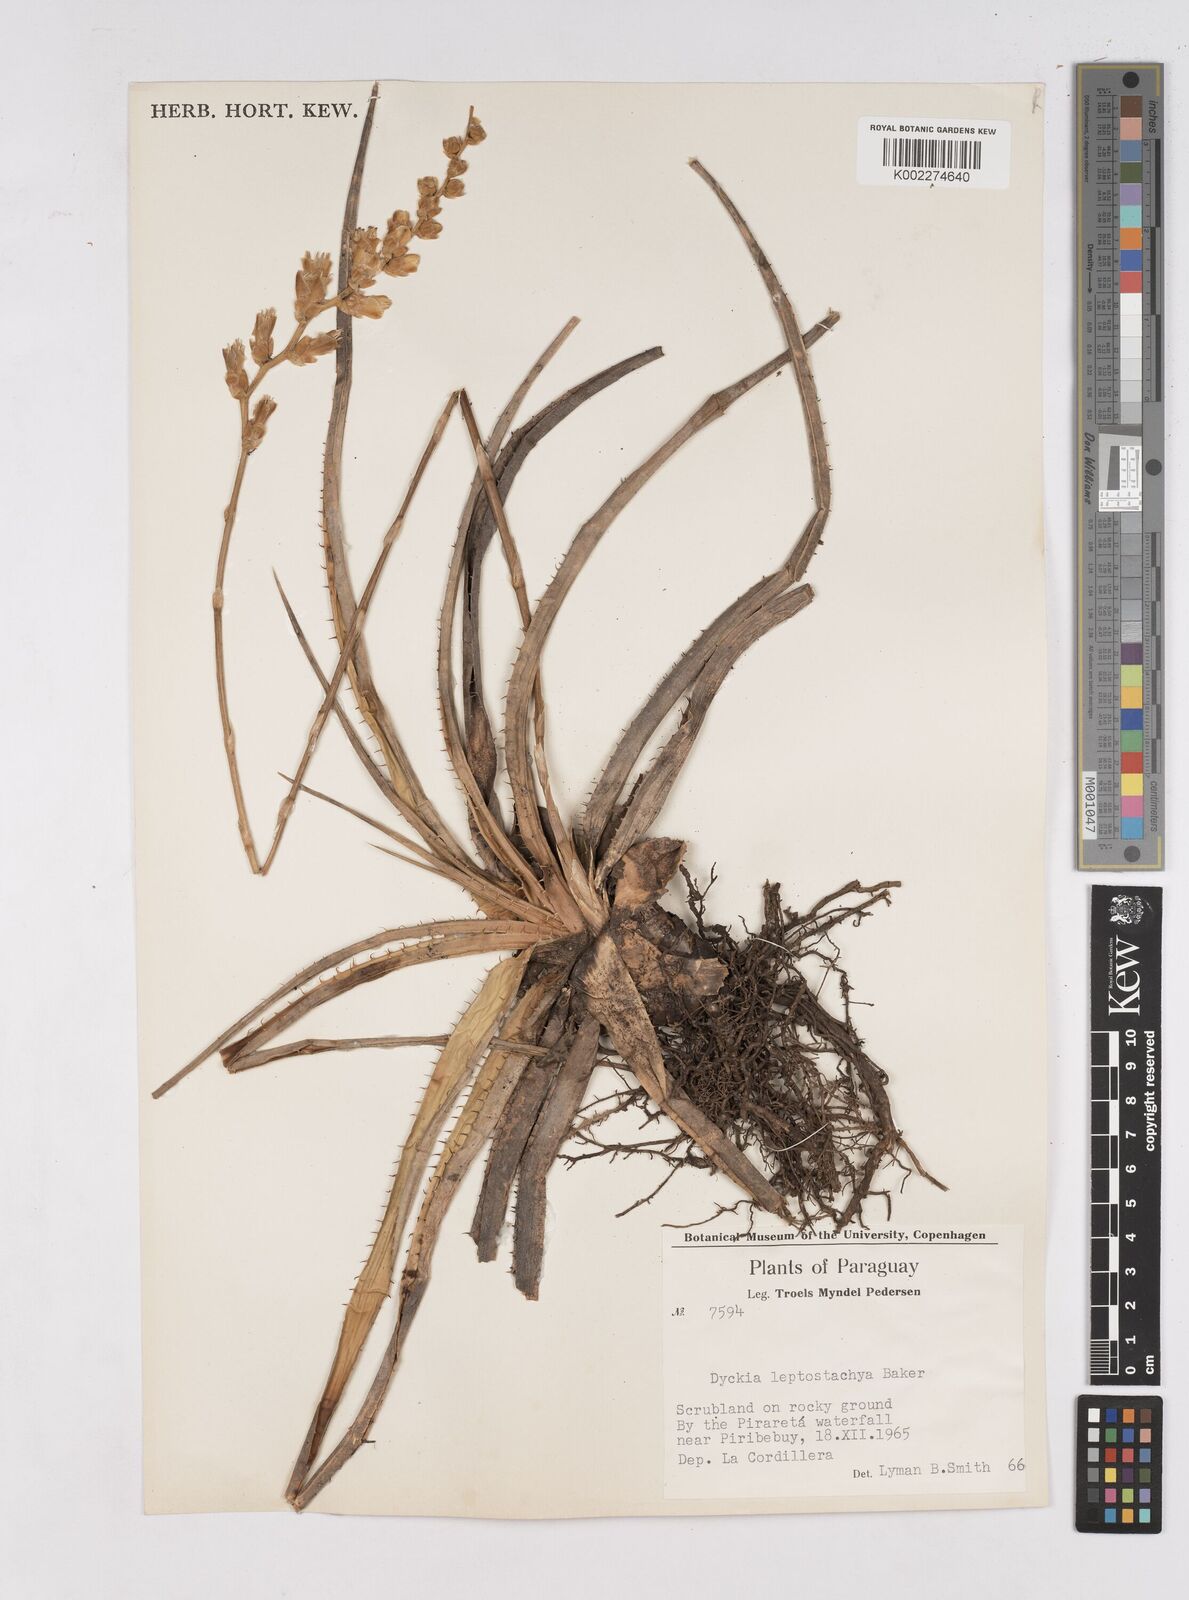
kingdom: Plantae
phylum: Tracheophyta
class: Liliopsida
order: Poales
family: Bromeliaceae
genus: Dyckia
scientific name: Dyckia leptostachya
